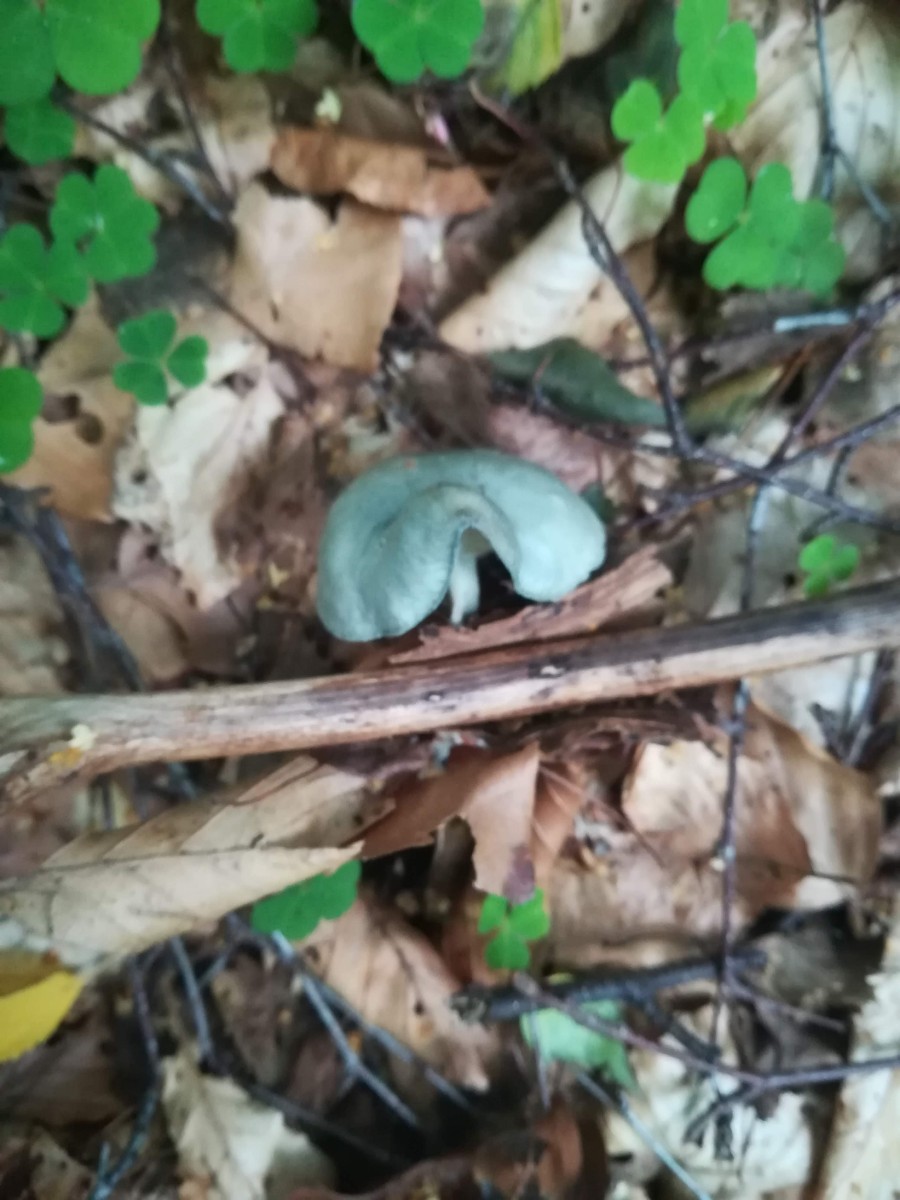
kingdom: Fungi
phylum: Basidiomycota
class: Agaricomycetes
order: Agaricales
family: Tricholomataceae
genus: Clitocybe
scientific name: Clitocybe odora
